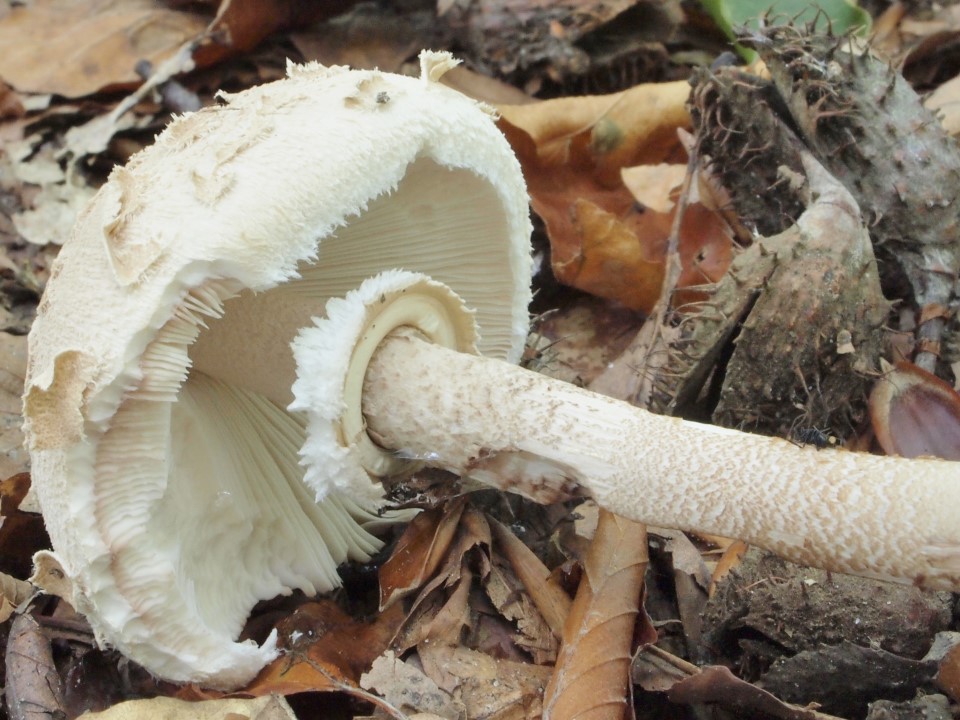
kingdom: Fungi
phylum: Basidiomycota
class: Agaricomycetes
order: Agaricales
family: Agaricaceae
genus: Macrolepiota
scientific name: Macrolepiota procera
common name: stor kæmpeparasolhat
